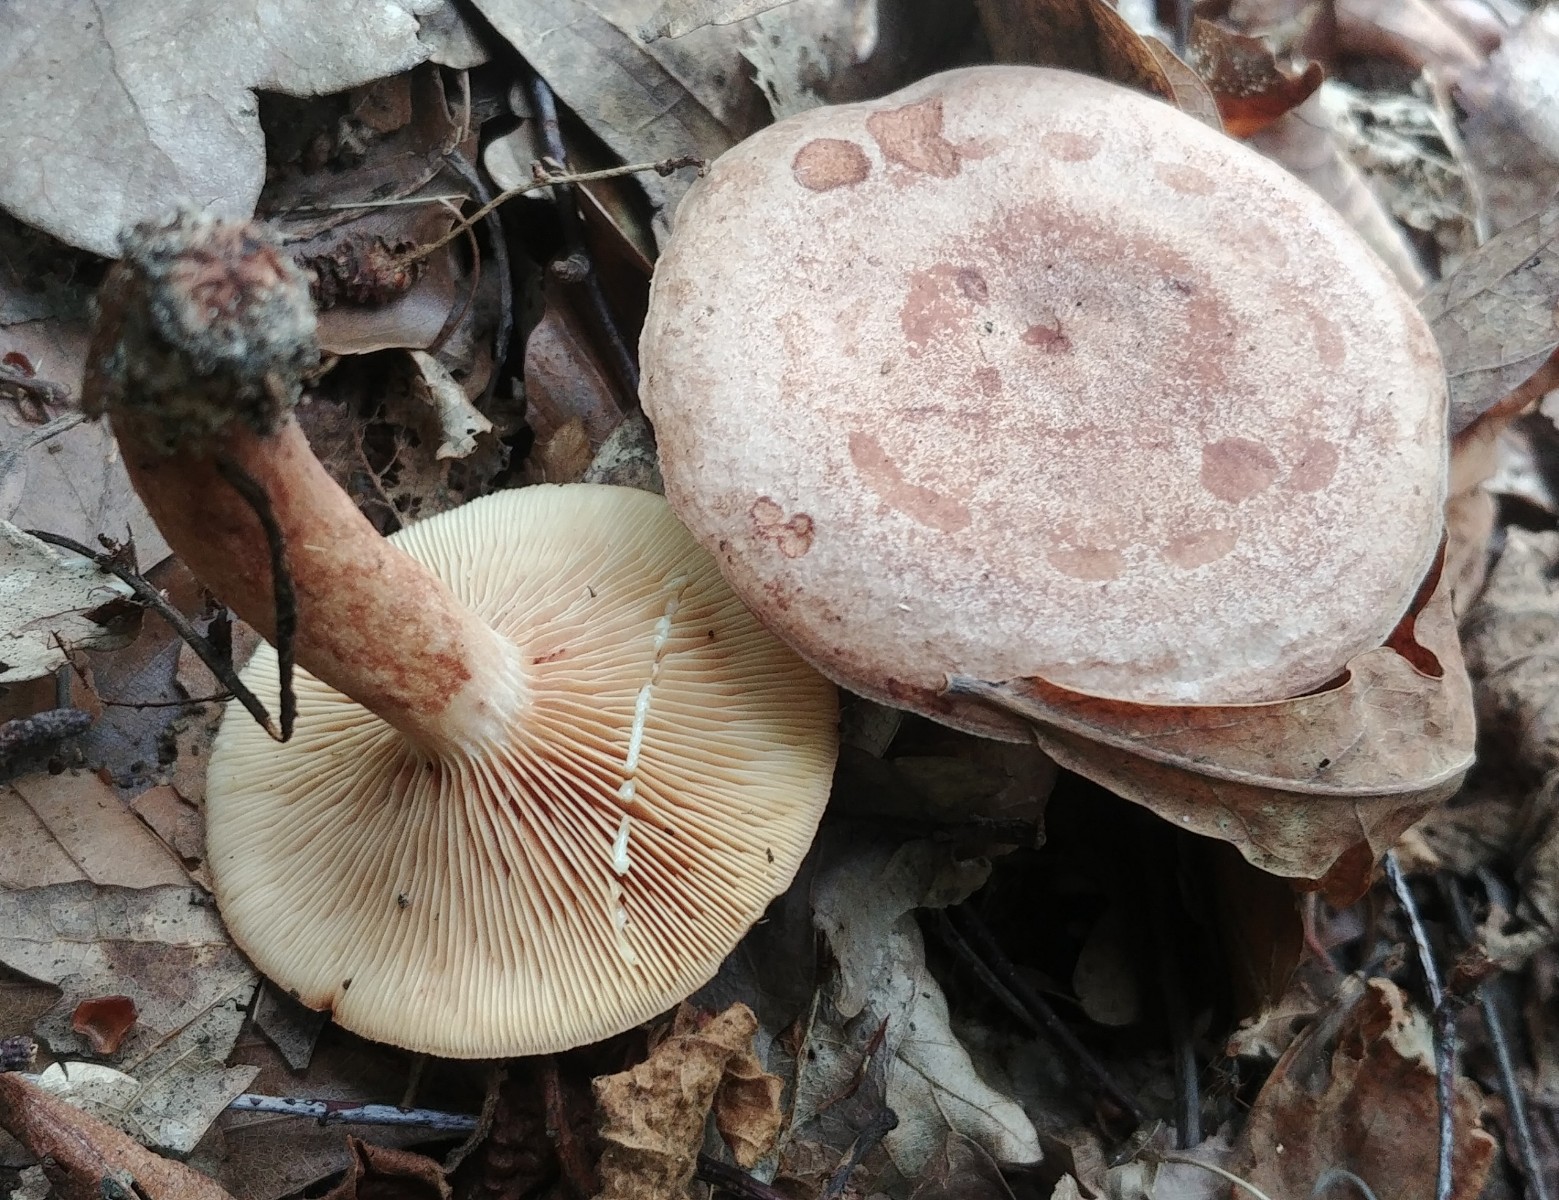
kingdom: Fungi
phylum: Basidiomycota
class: Agaricomycetes
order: Russulales
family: Russulaceae
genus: Lactarius
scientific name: Lactarius quietus
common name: ege-mælkehat
